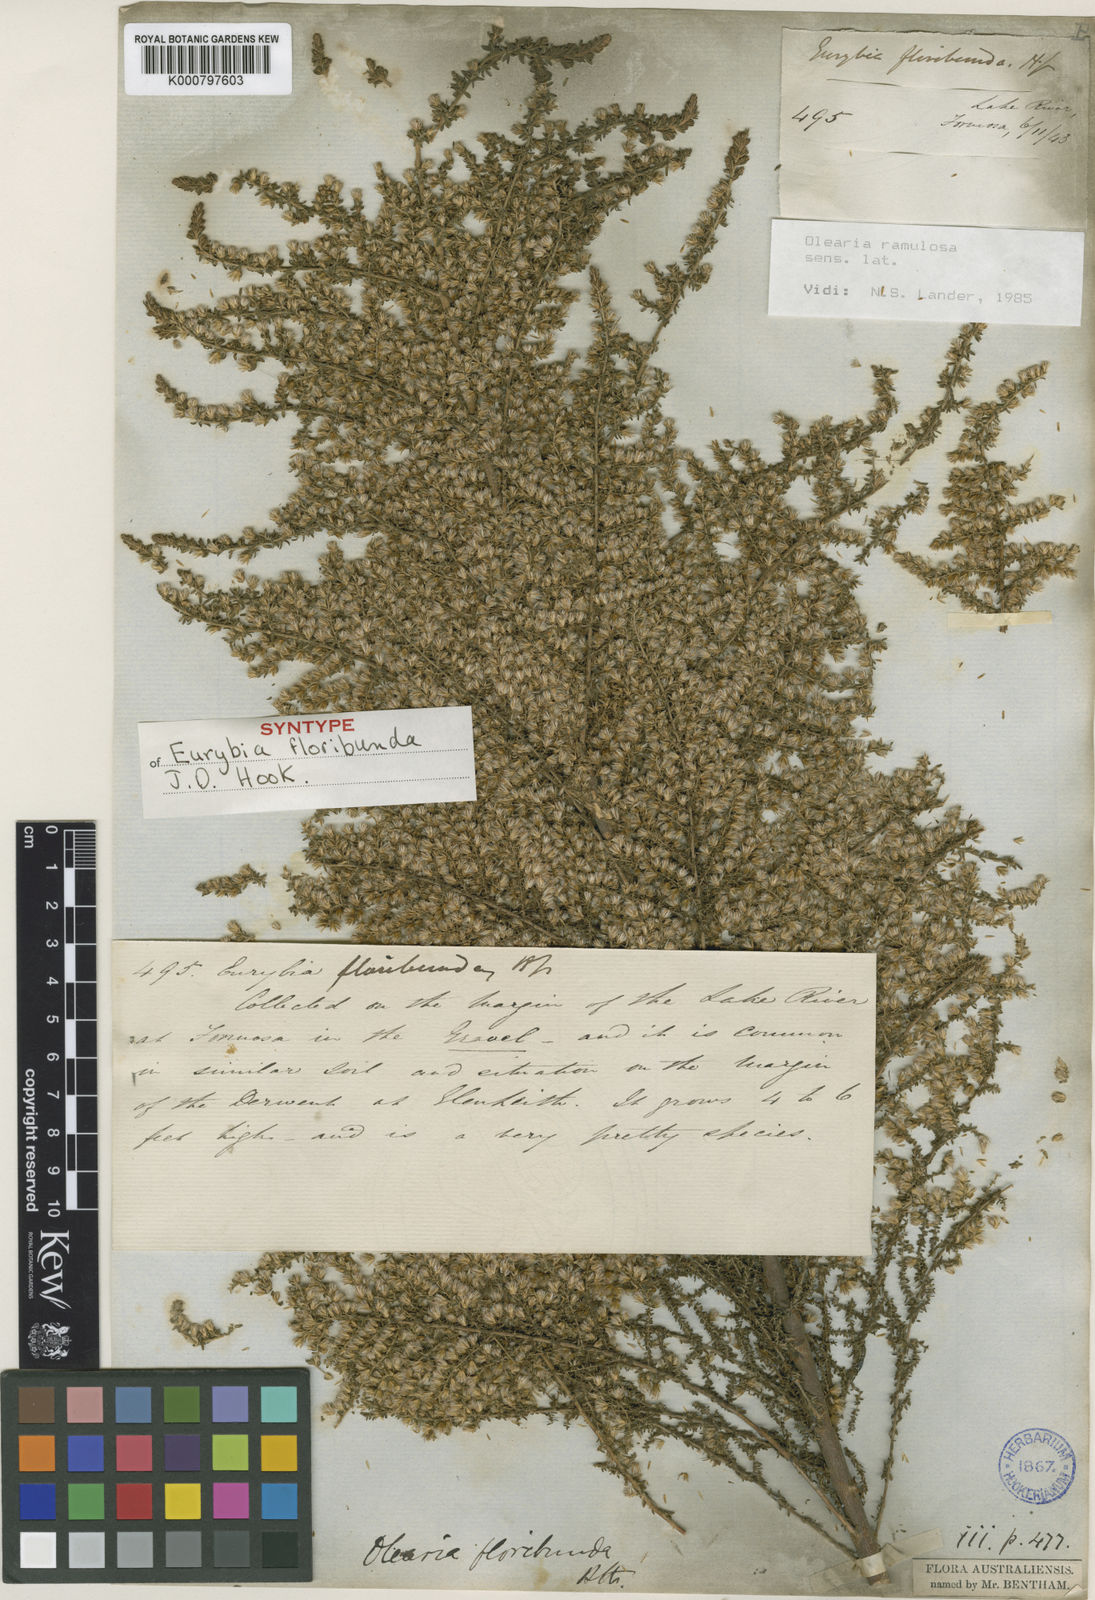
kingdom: Plantae
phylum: Tracheophyta
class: Magnoliopsida
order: Asterales
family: Asteraceae
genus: Olearia
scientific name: Olearia floribunda
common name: Heath daisybush
